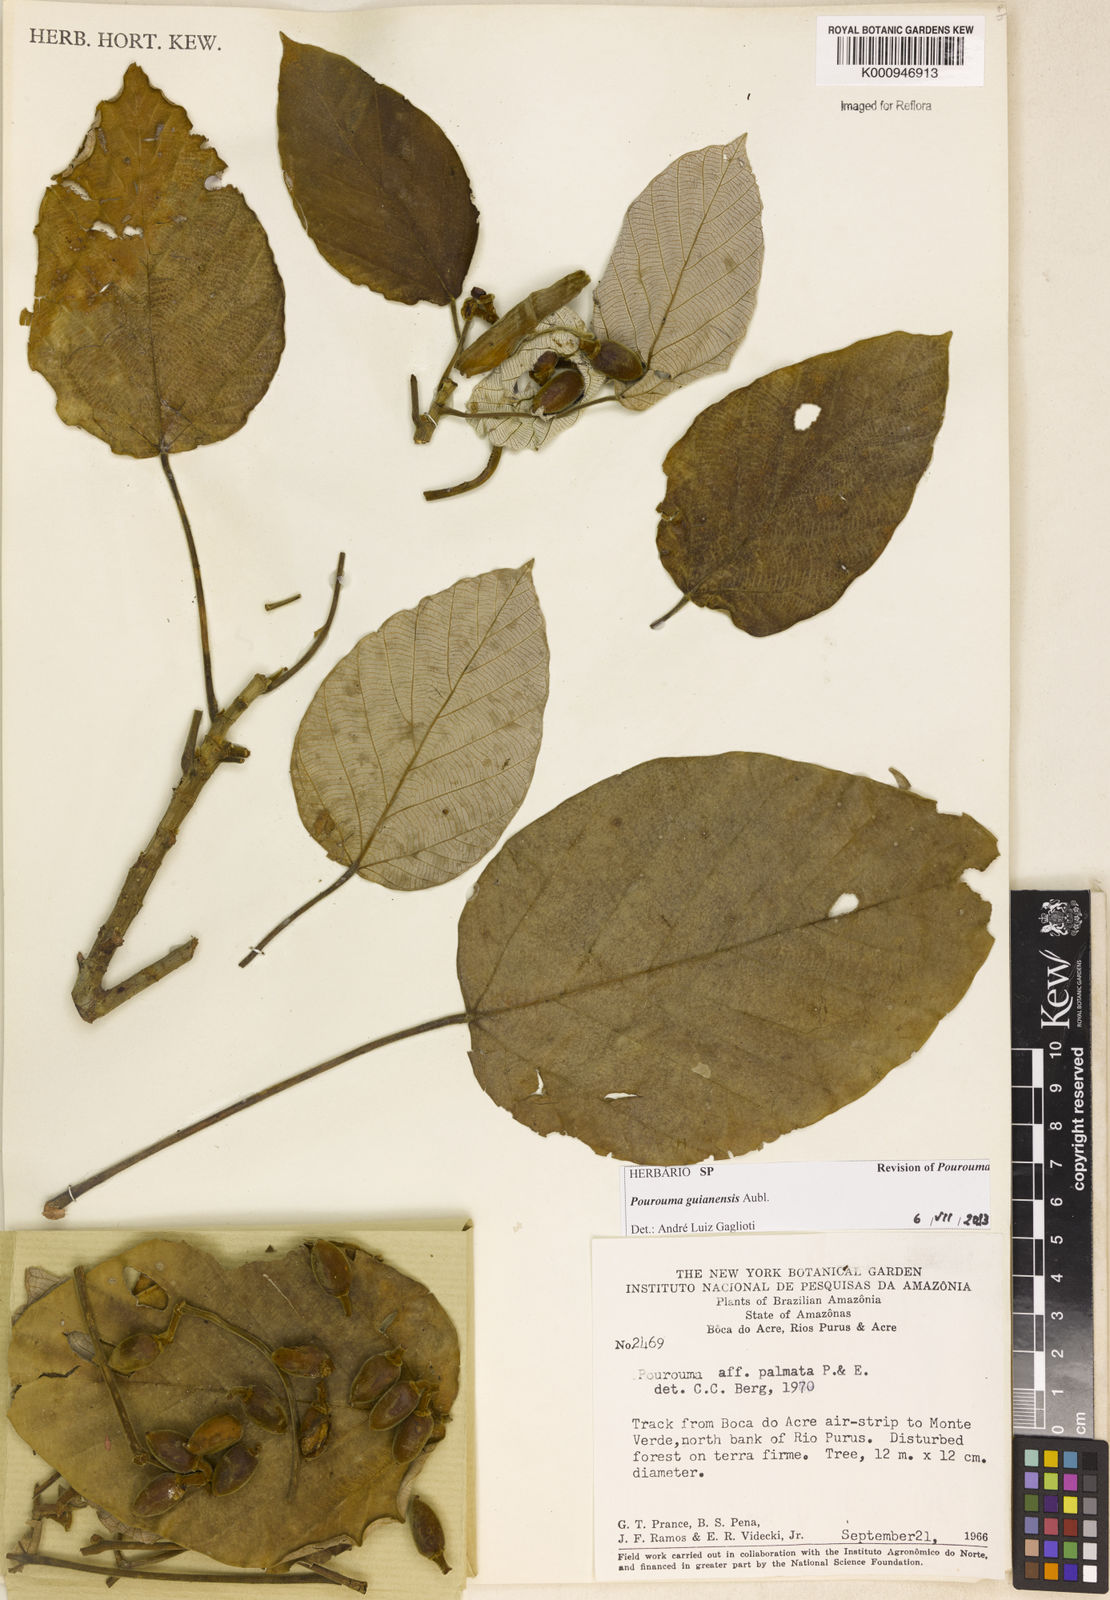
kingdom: Plantae
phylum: Tracheophyta
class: Magnoliopsida
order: Rosales
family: Urticaceae
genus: Pourouma
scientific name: Pourouma guianensis
